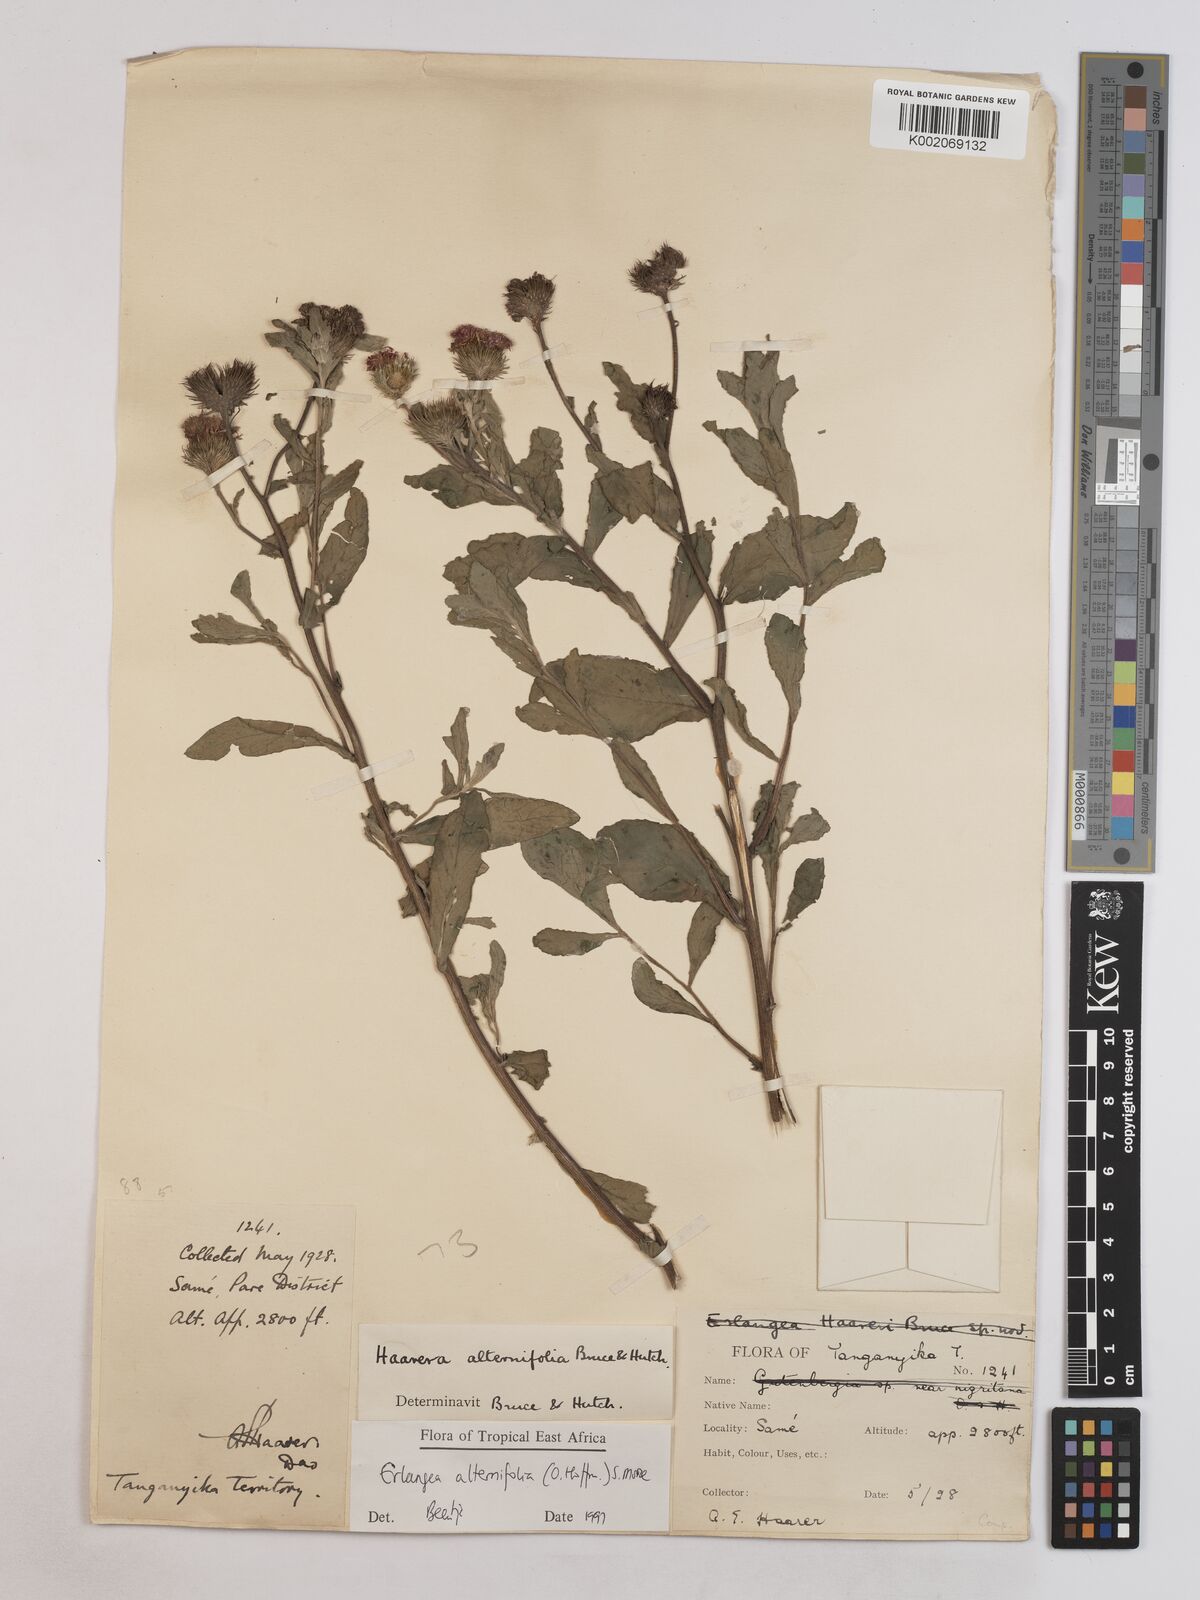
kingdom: Plantae
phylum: Tracheophyta
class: Magnoliopsida
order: Asterales
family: Asteraceae
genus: Erlangea
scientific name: Erlangea alternifolia
